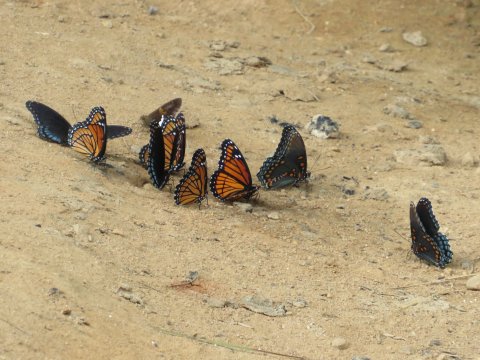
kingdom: Animalia
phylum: Arthropoda
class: Insecta
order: Lepidoptera
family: Nymphalidae
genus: Limenitis
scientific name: Limenitis arthemis
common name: Red-spotted Admiral
